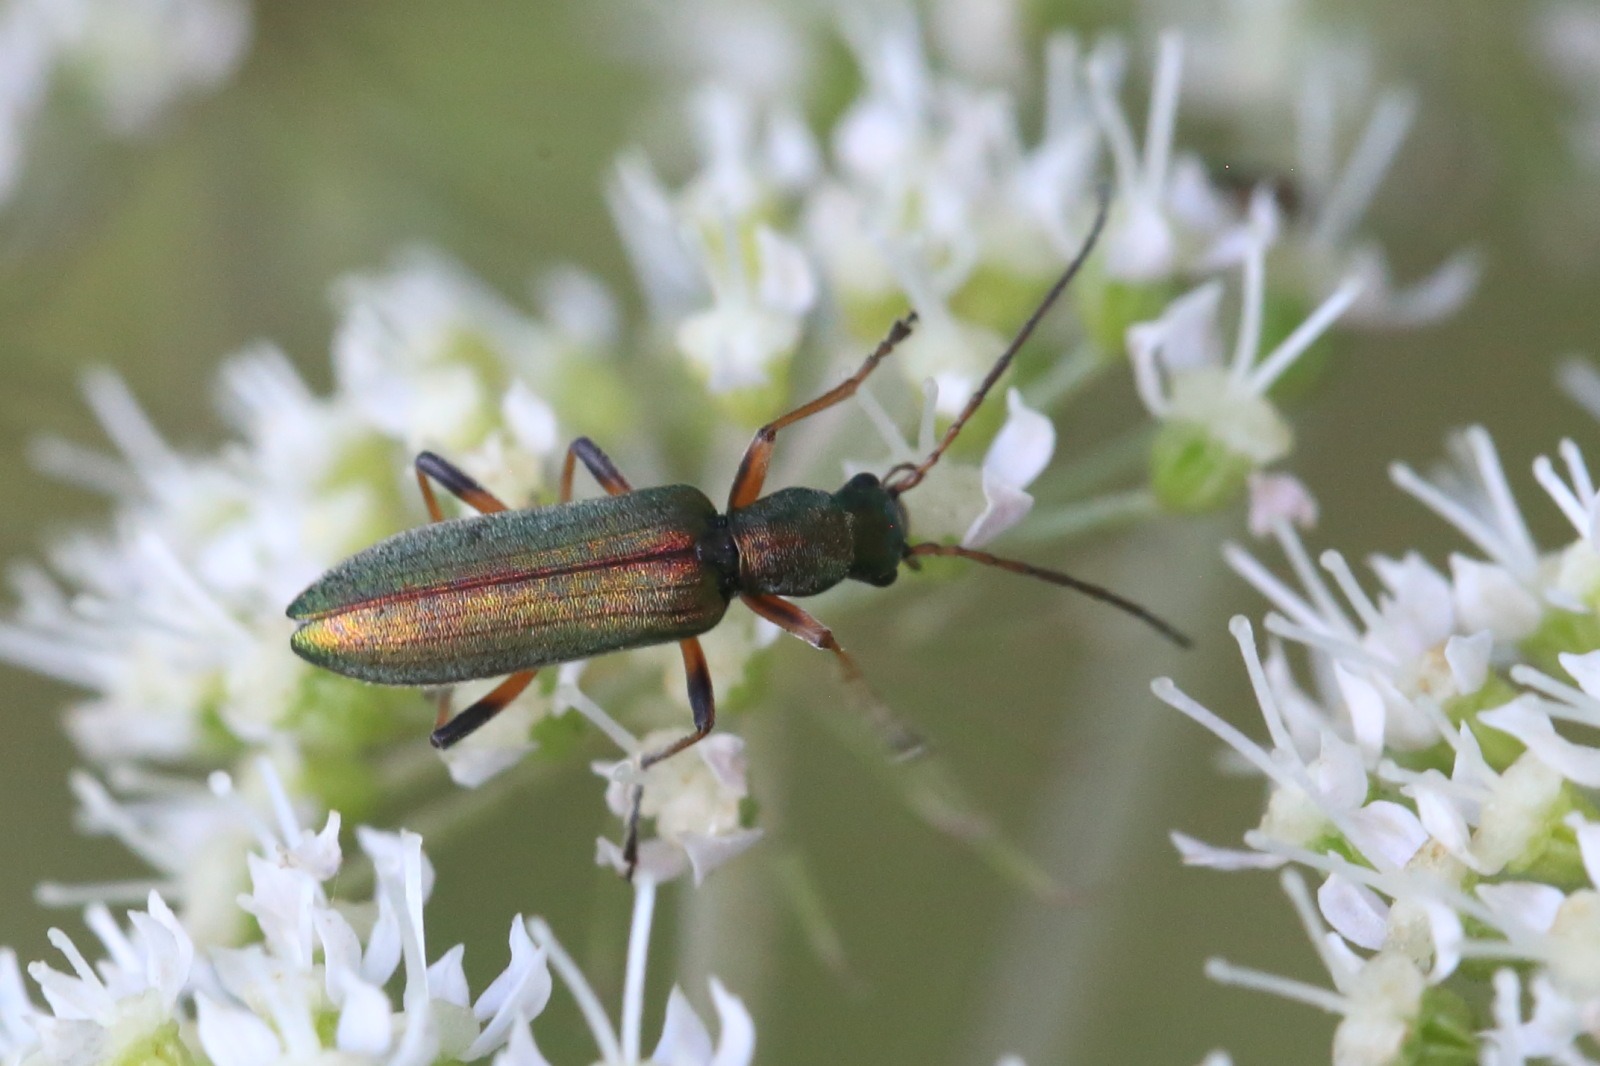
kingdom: Animalia
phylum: Arthropoda
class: Insecta
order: Coleoptera
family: Oedemeridae
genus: Chrysanthia
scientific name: Chrysanthia geniculata
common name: Grøn solbille
